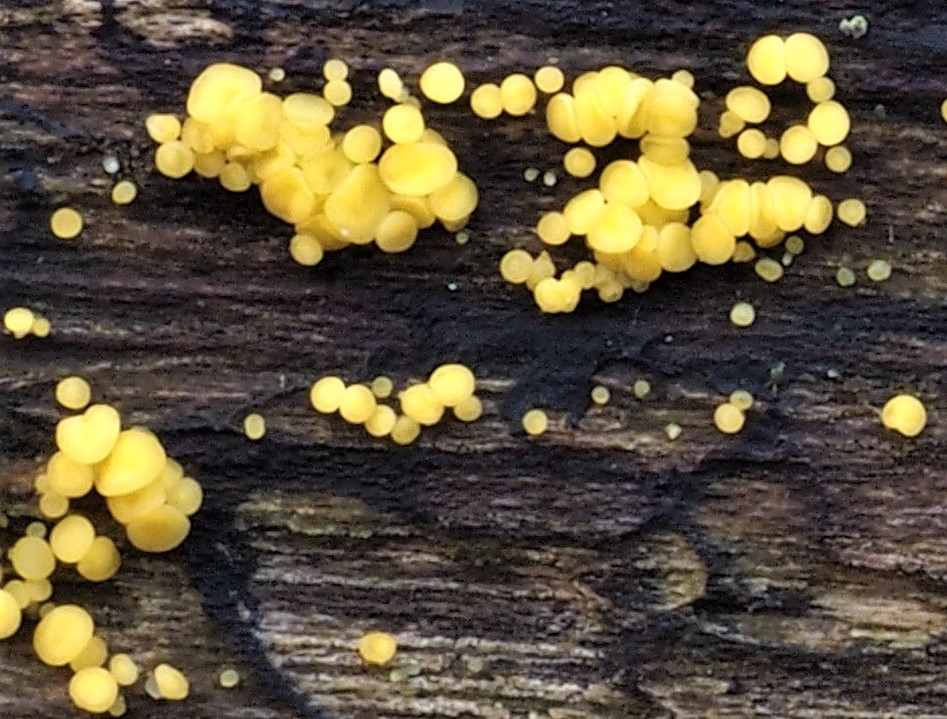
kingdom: Fungi
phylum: Ascomycota
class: Leotiomycetes
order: Helotiales
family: Pezizellaceae
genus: Calycina
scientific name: Calycina citrina
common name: almindelig gulskive
